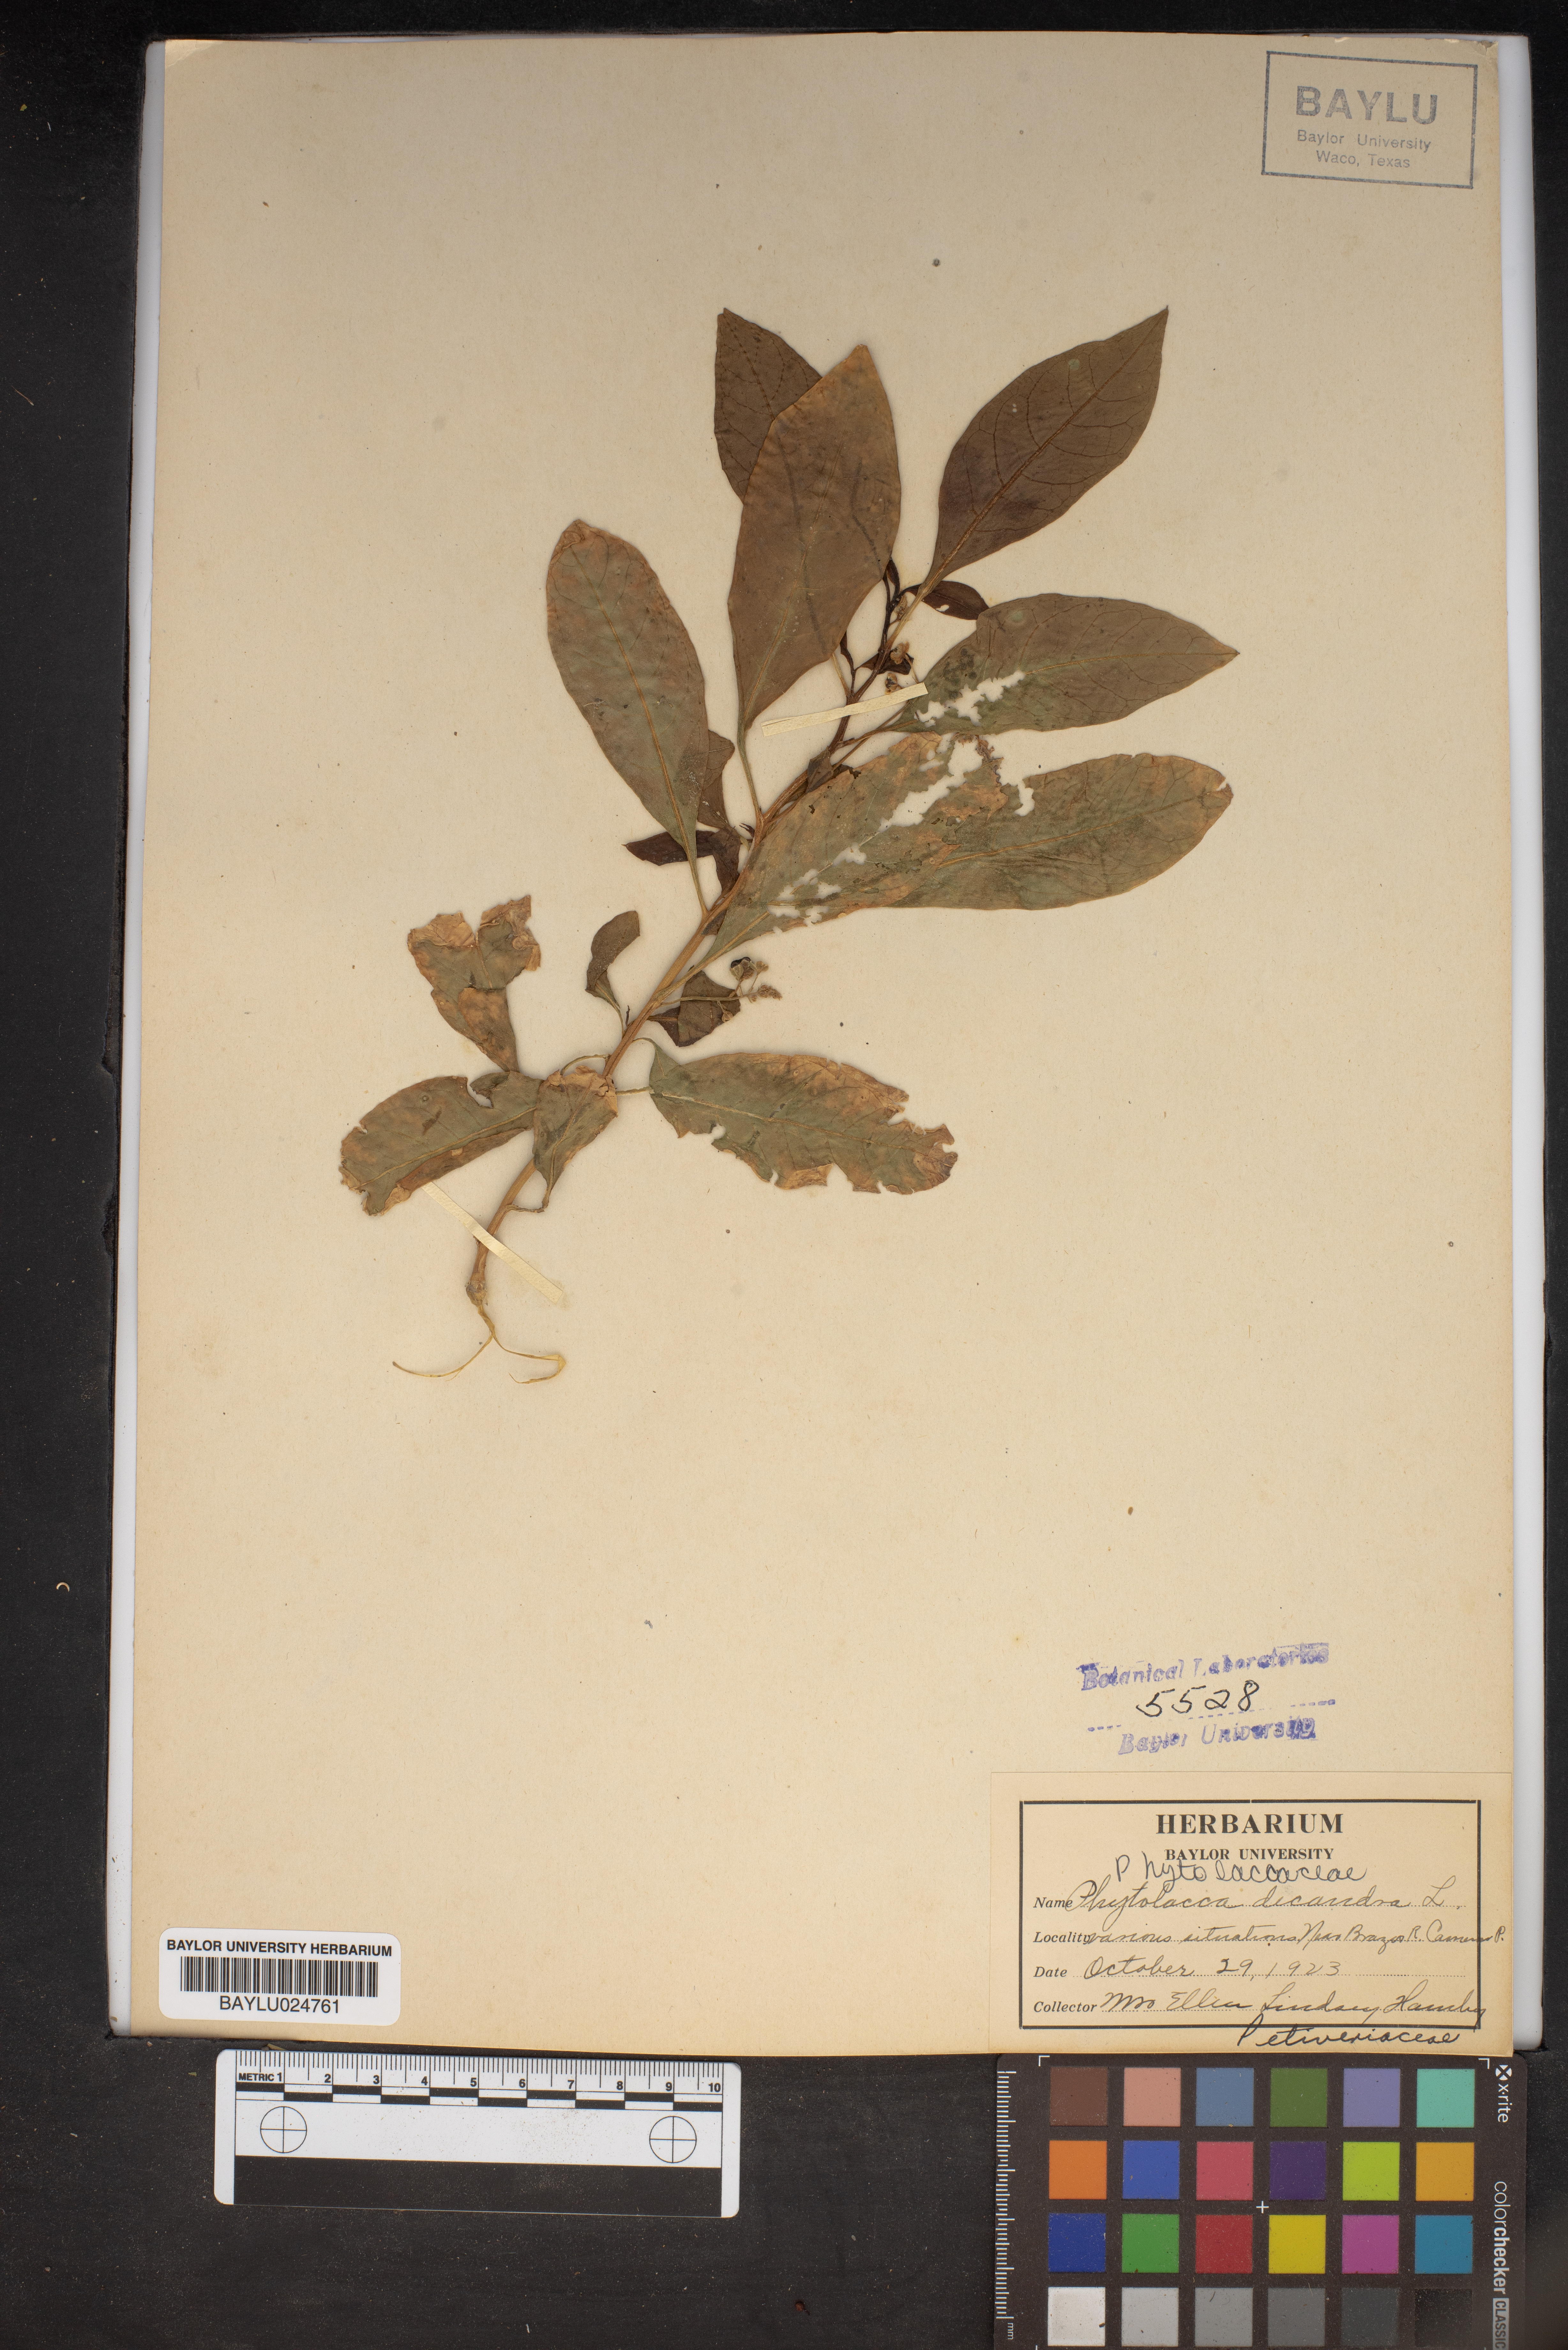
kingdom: Plantae
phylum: Tracheophyta
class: Magnoliopsida
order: Caryophyllales
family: Phytolaccaceae
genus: Phytolacca
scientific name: Phytolacca americana
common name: American pokeweed
